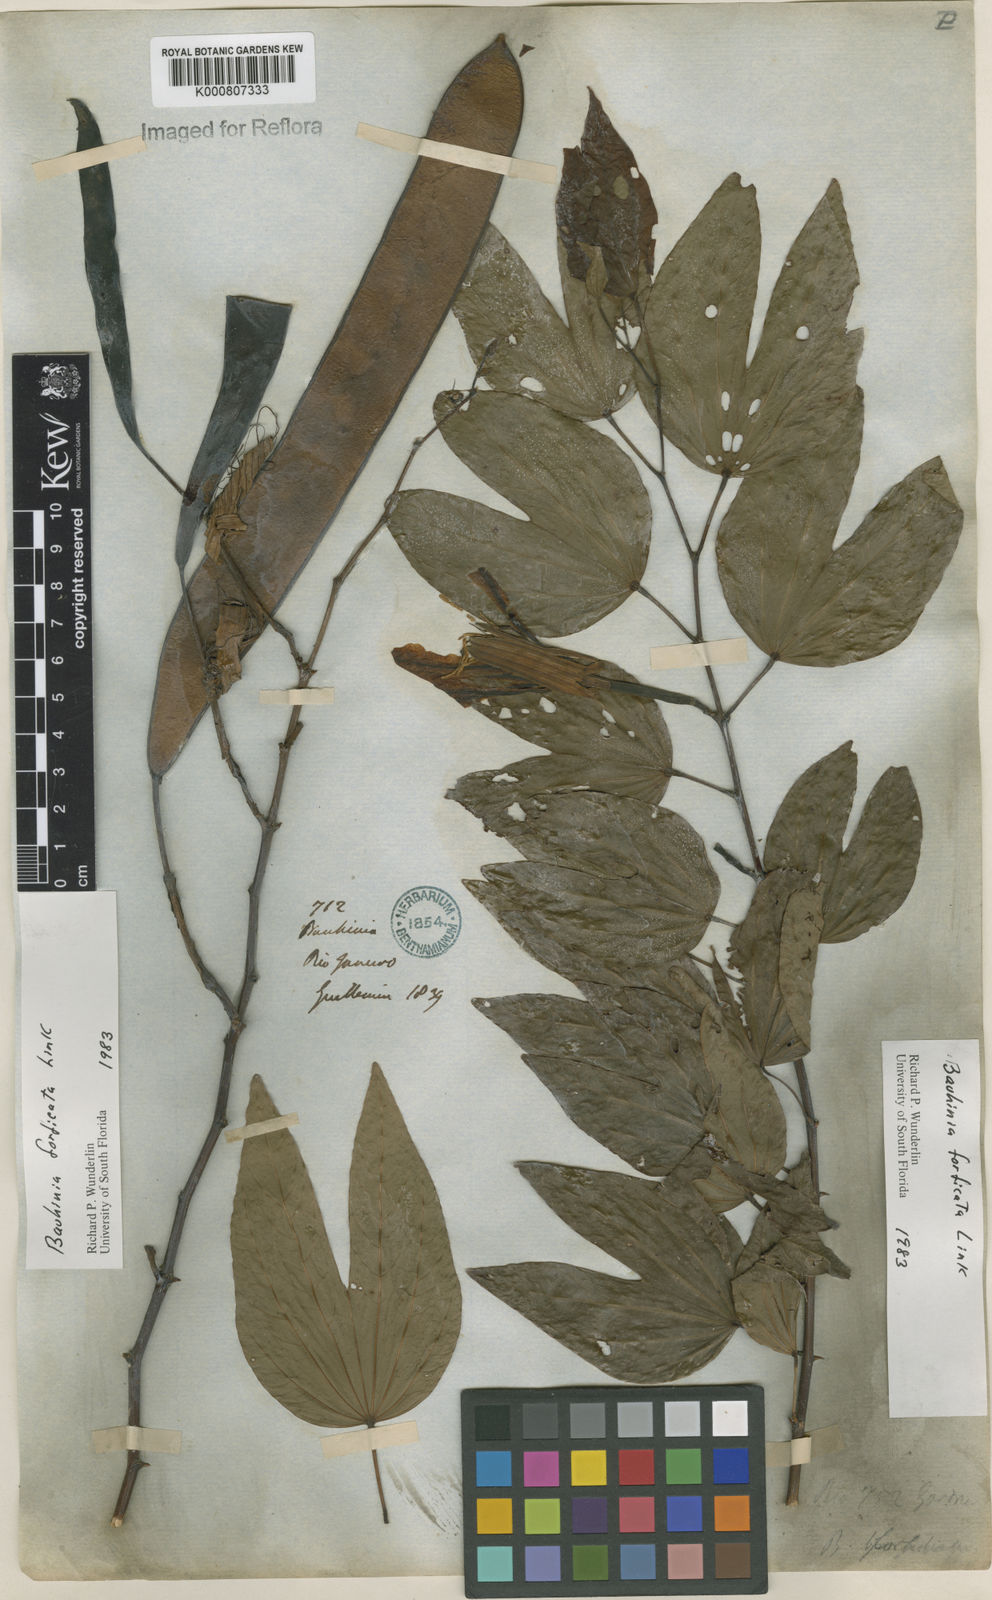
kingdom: Plantae
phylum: Tracheophyta
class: Magnoliopsida
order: Fabales
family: Fabaceae
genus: Bauhinia
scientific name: Bauhinia forficata
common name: Orchid tree
